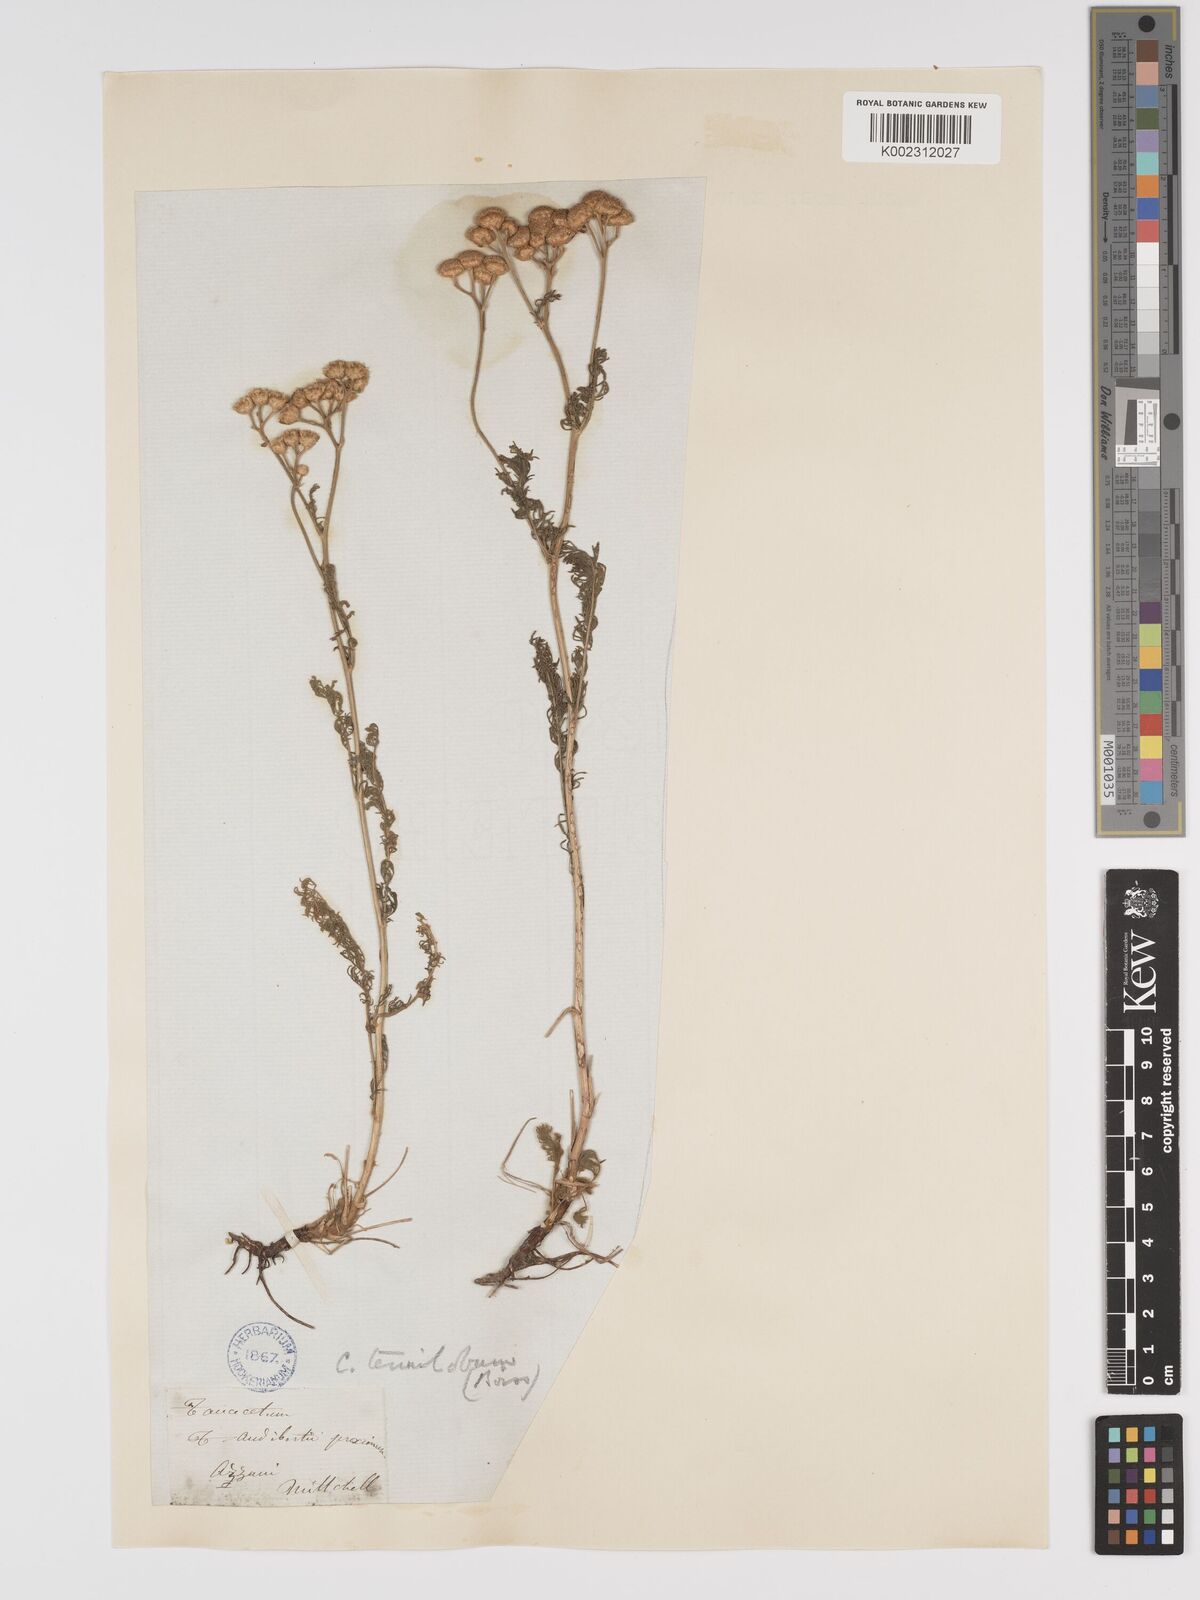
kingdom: Plantae
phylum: Tracheophyta
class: Magnoliopsida
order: Asterales
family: Asteraceae
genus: Tanacetum
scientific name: Tanacetum aucheri
